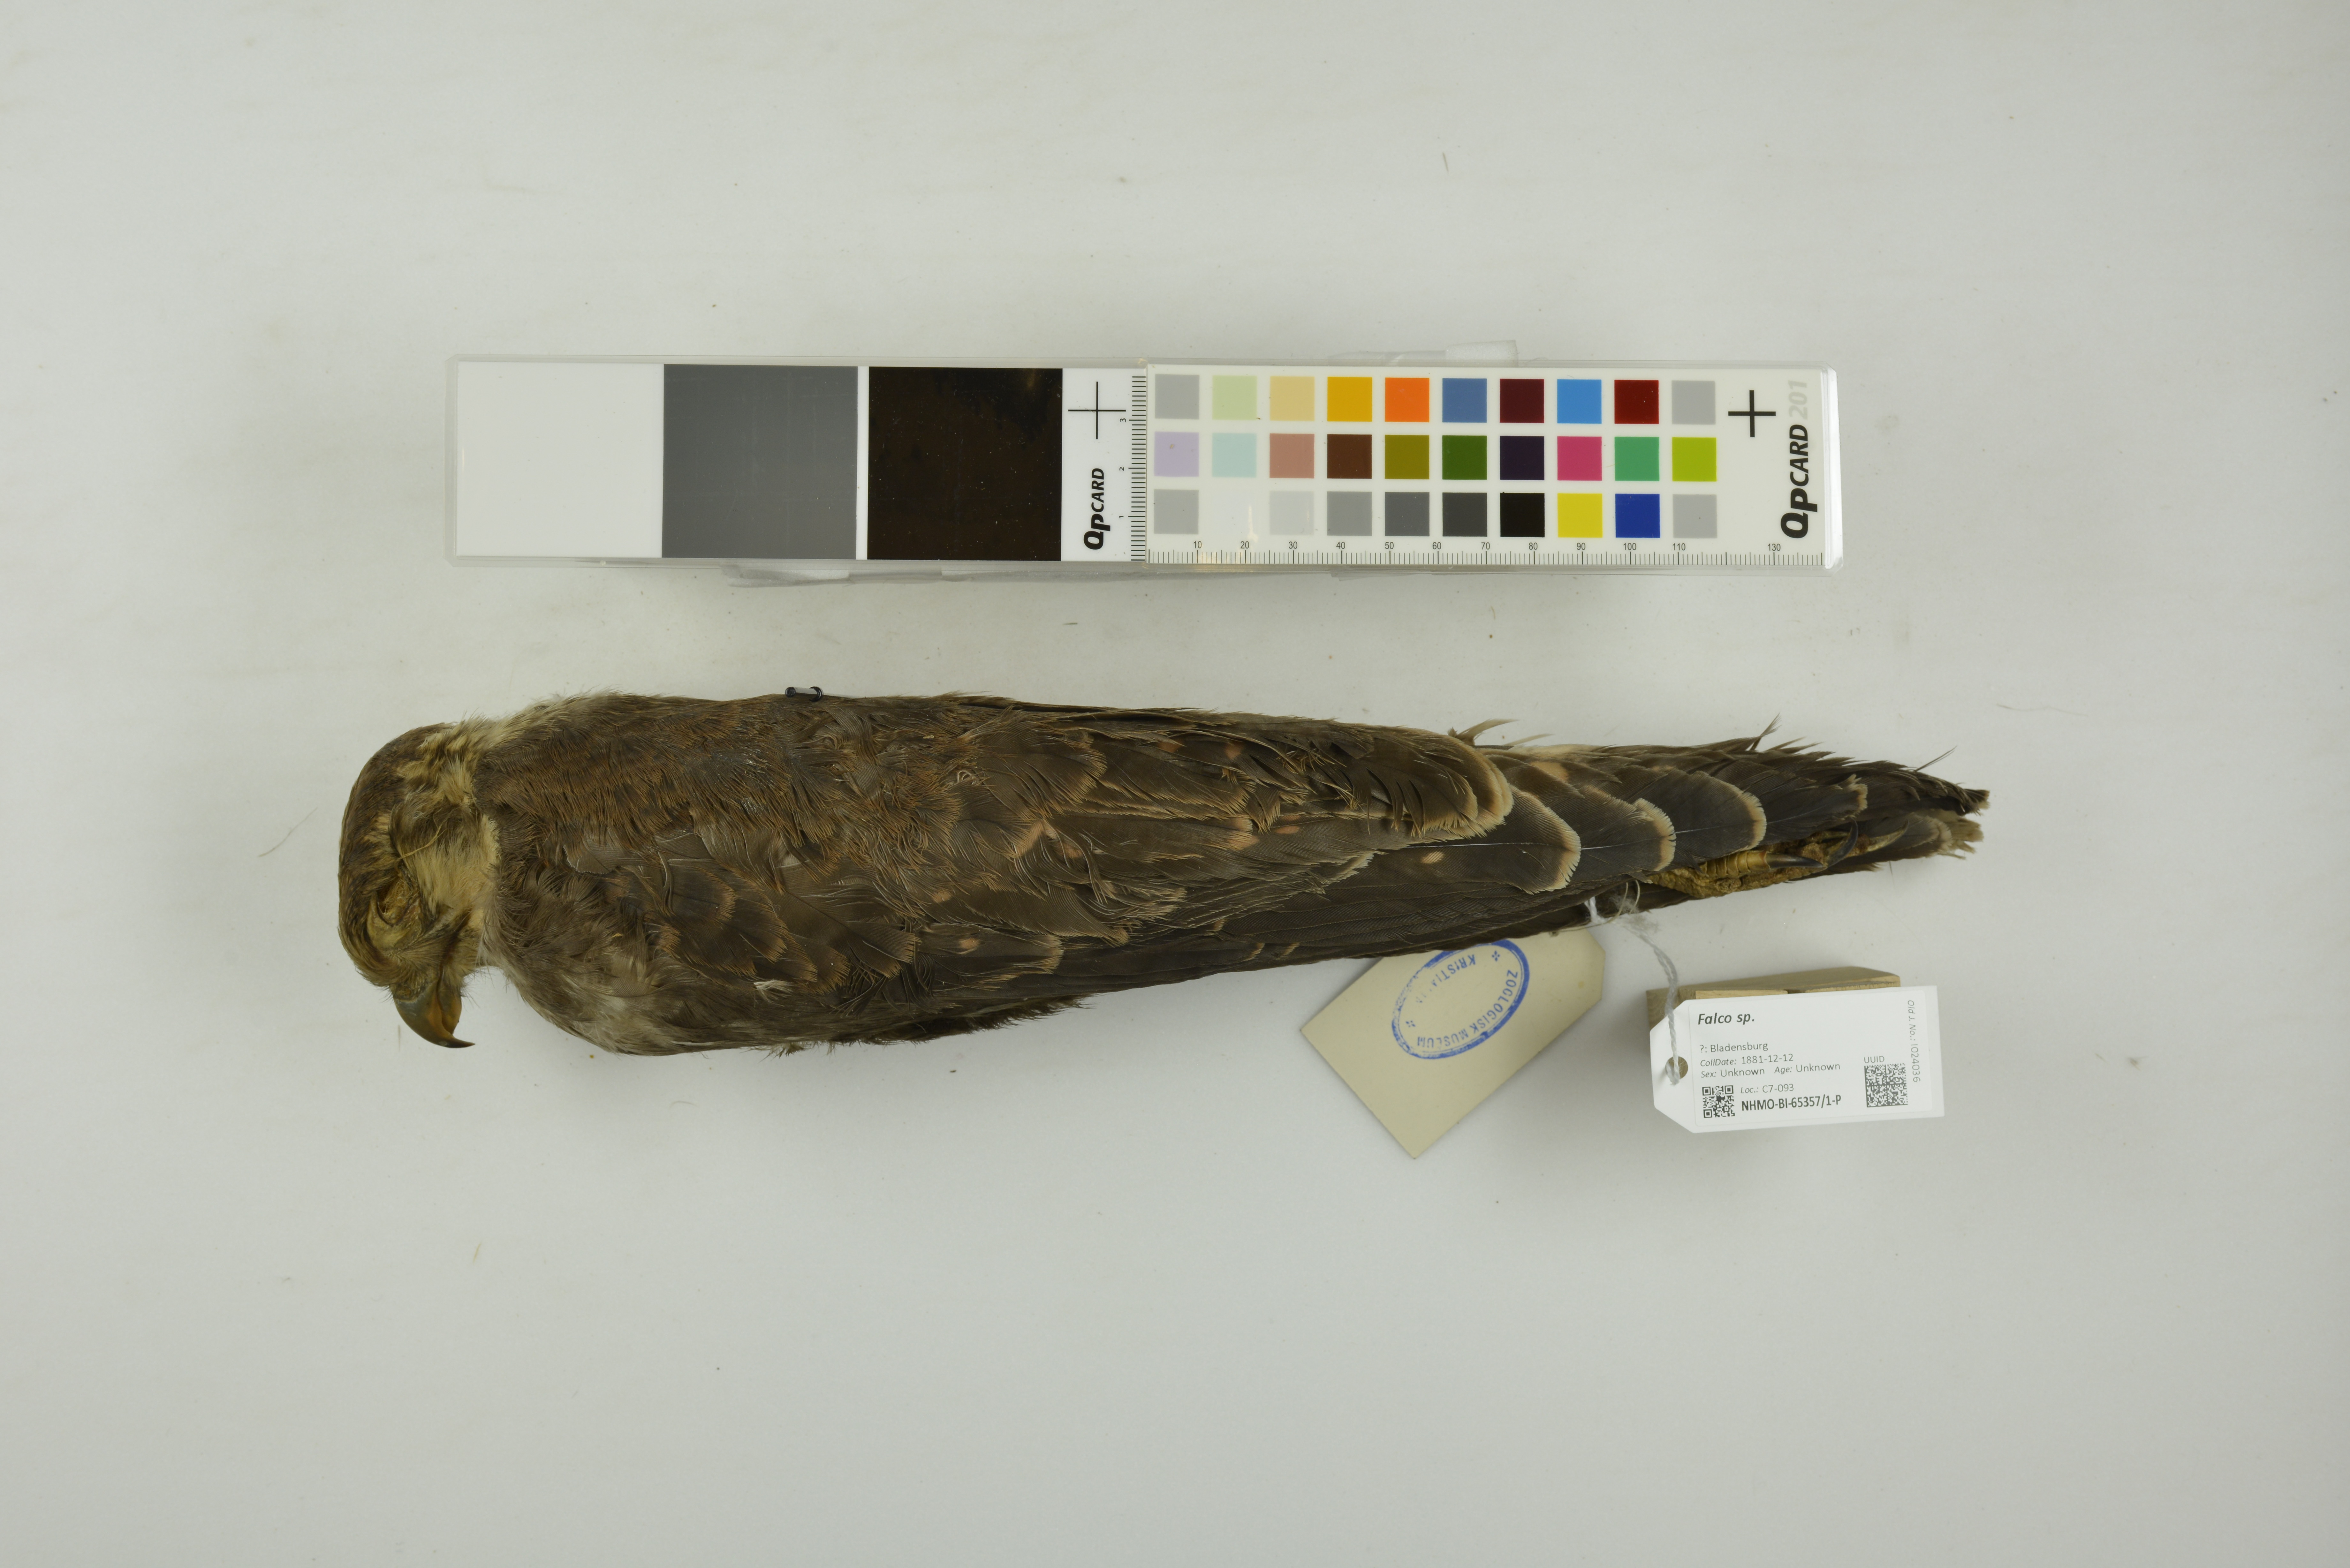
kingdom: Animalia
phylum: Chordata
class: Aves
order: Falconiformes
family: Falconidae
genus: Falco
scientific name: Falco berigora
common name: Brown falcon
